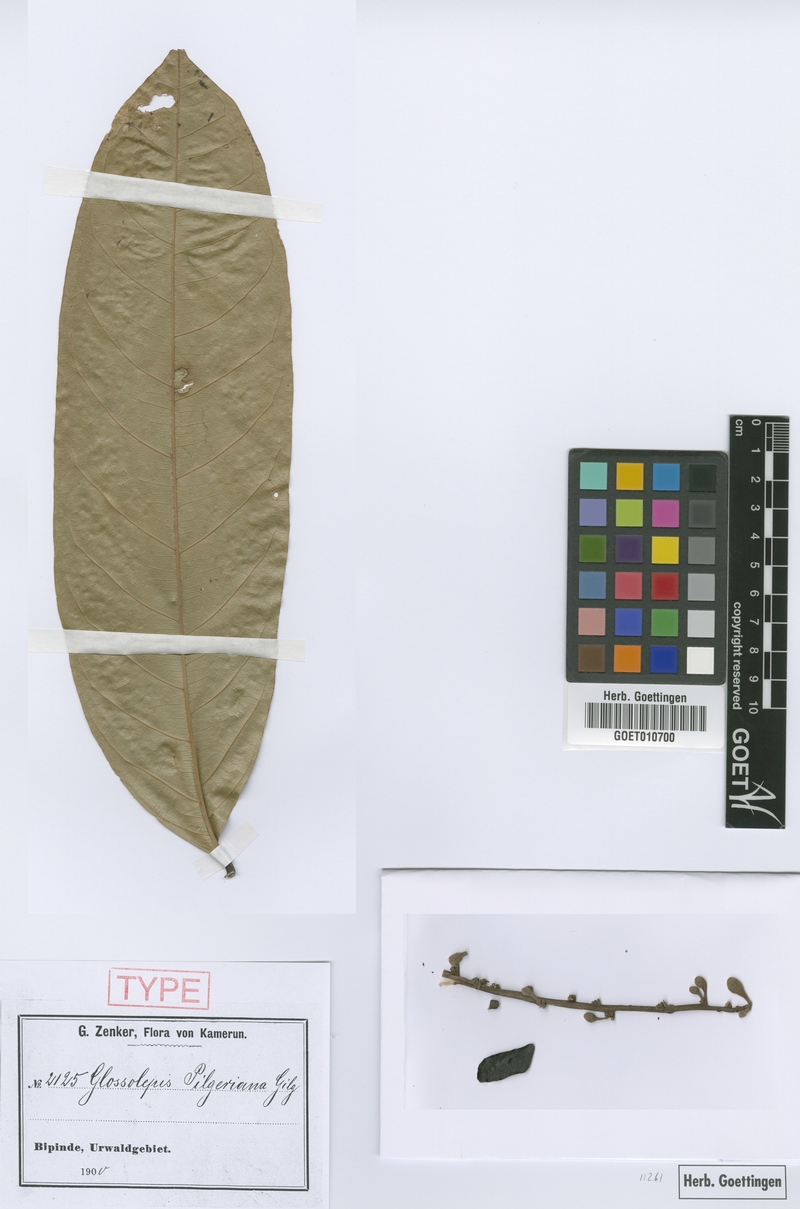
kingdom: Plantae
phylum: Tracheophyta
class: Magnoliopsida
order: Sapindales
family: Sapindaceae
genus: Chytranthus
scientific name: Chytranthus talbotii
